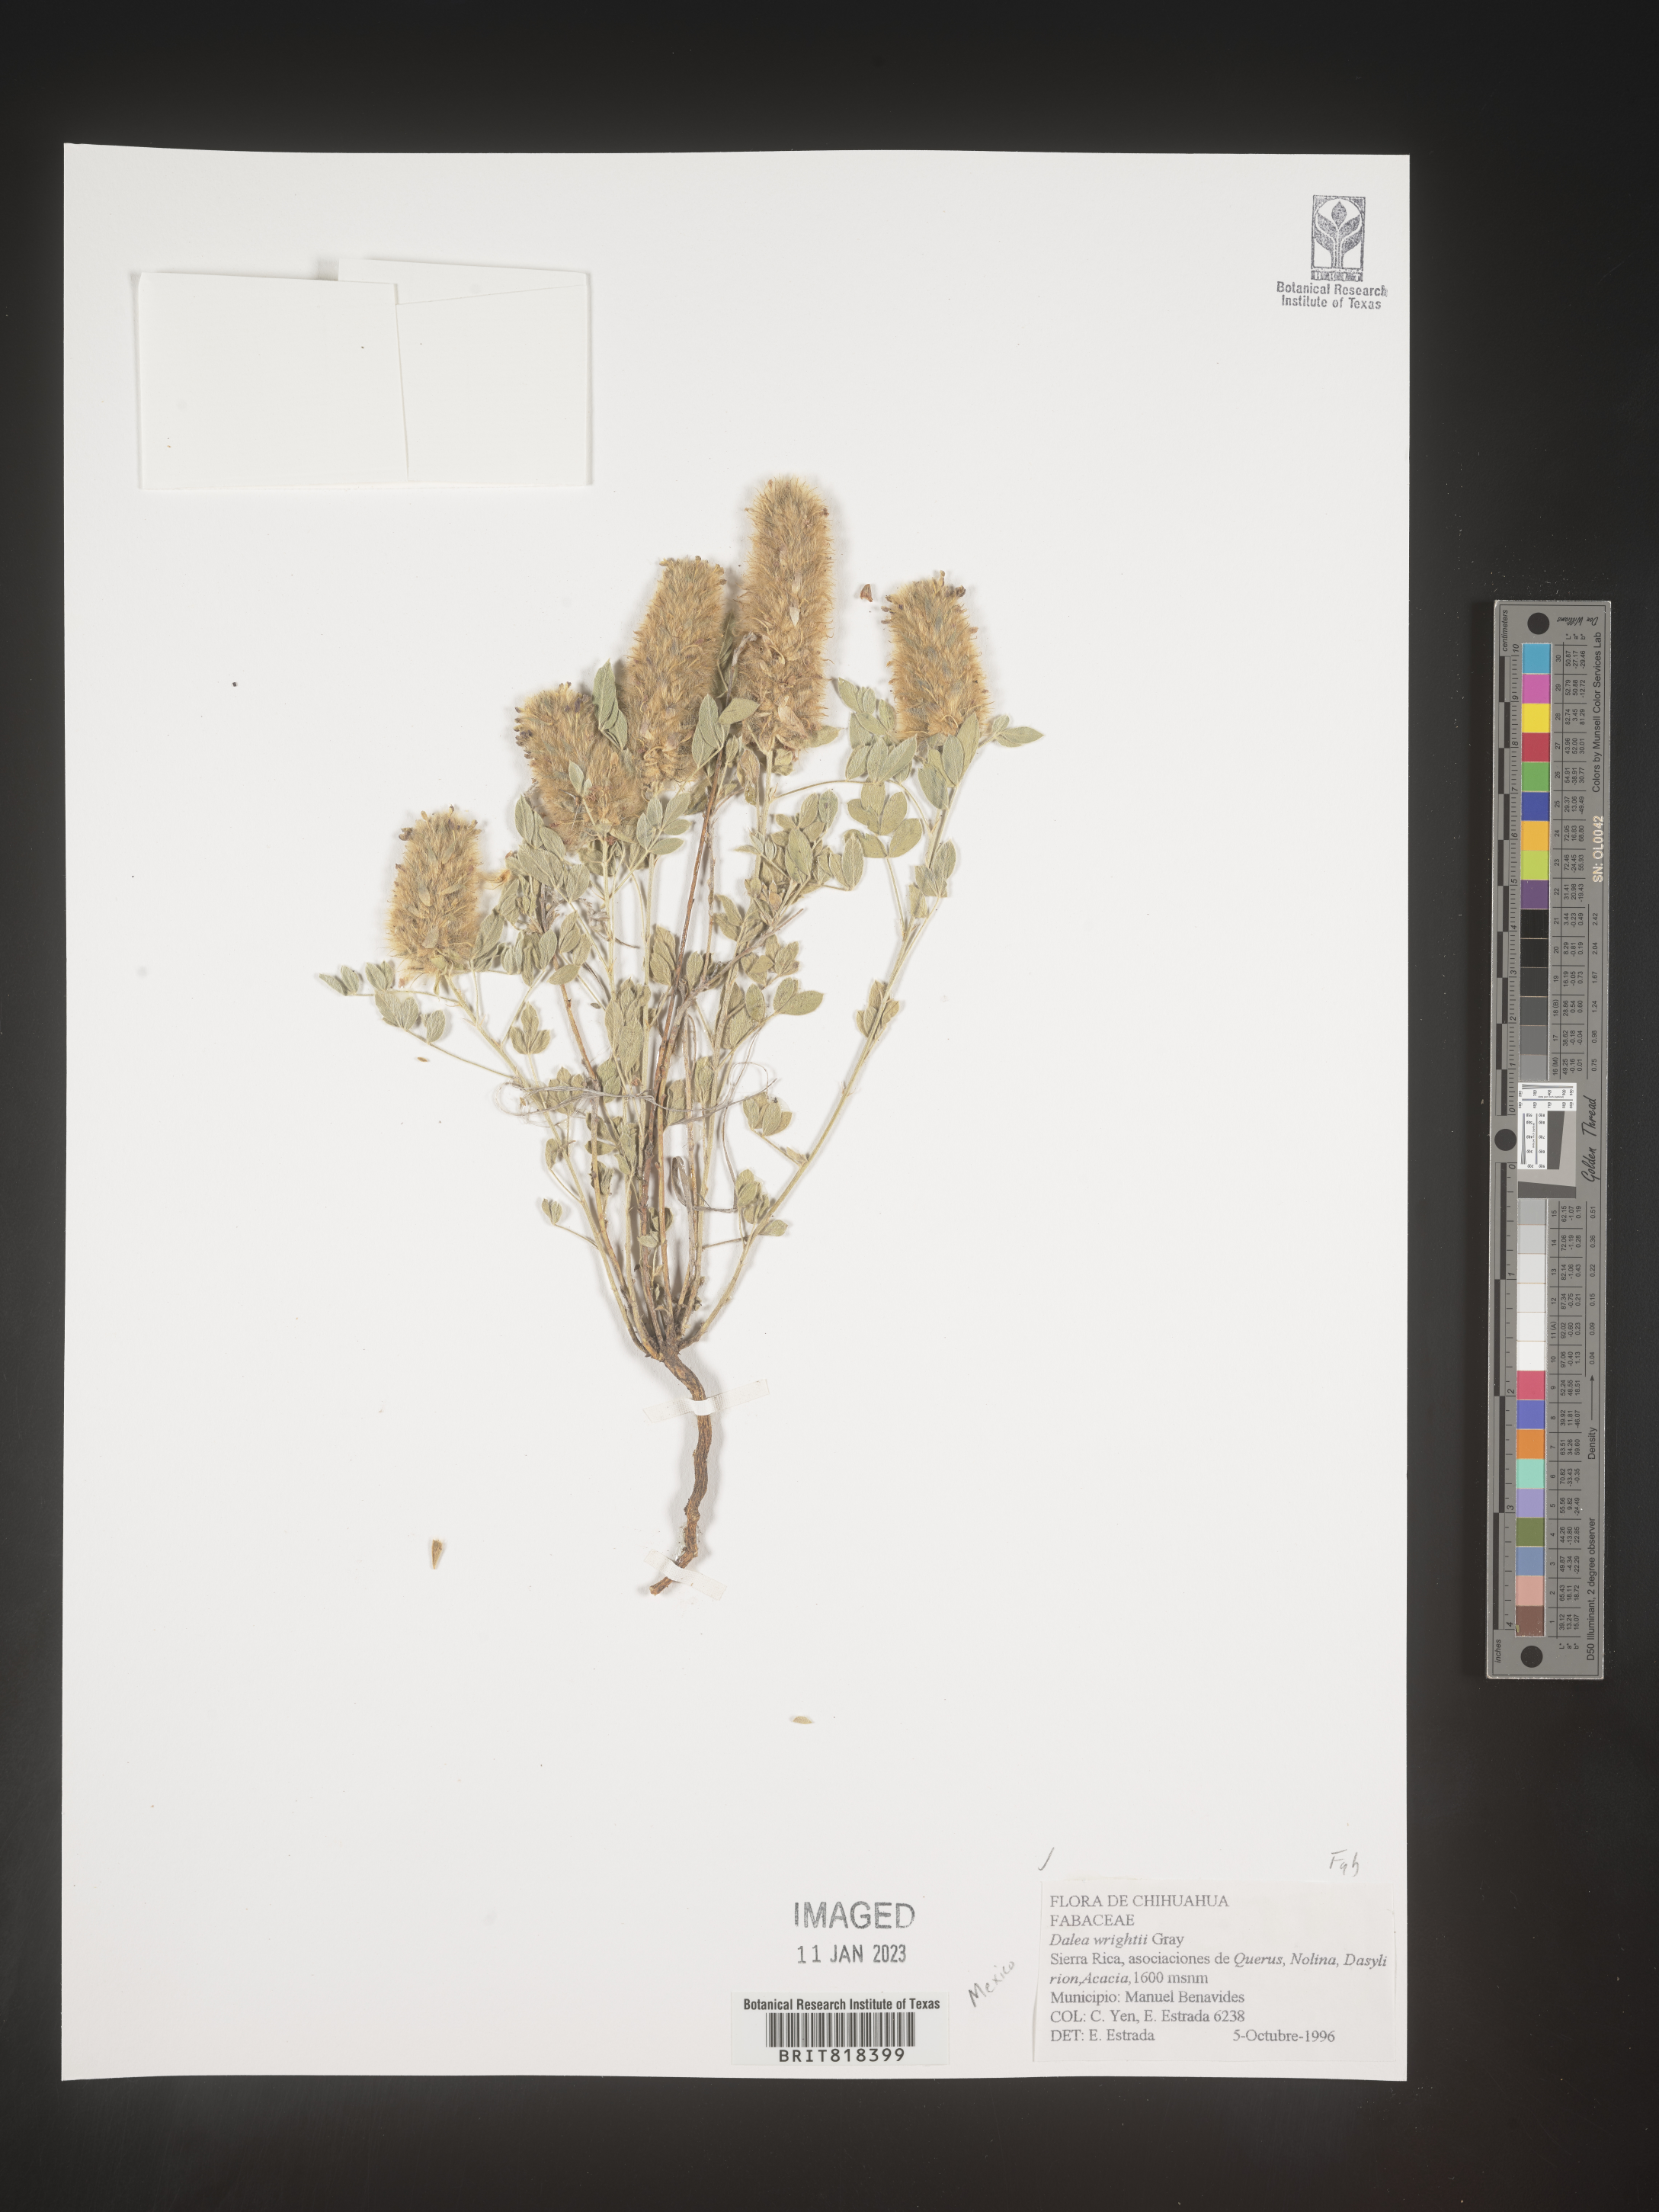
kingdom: Plantae
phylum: Tracheophyta
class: Magnoliopsida
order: Fabales
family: Fabaceae
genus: Dalea
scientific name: Dalea
